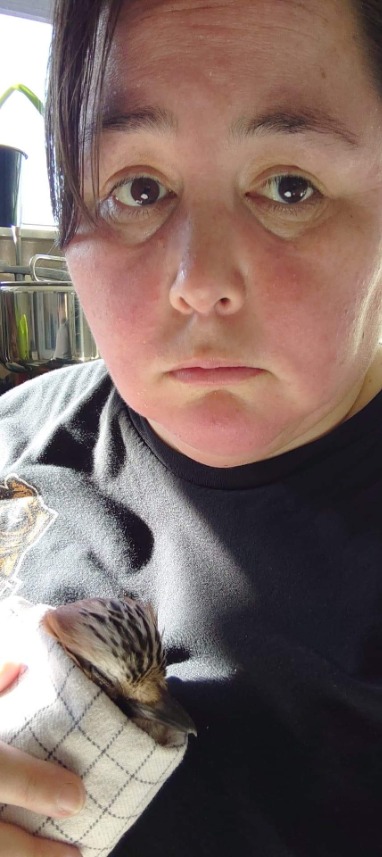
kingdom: Animalia
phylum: Chordata
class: Aves
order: Passeriformes
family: Corvidae
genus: Garrulus
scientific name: Garrulus glandarius
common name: Skovskade
